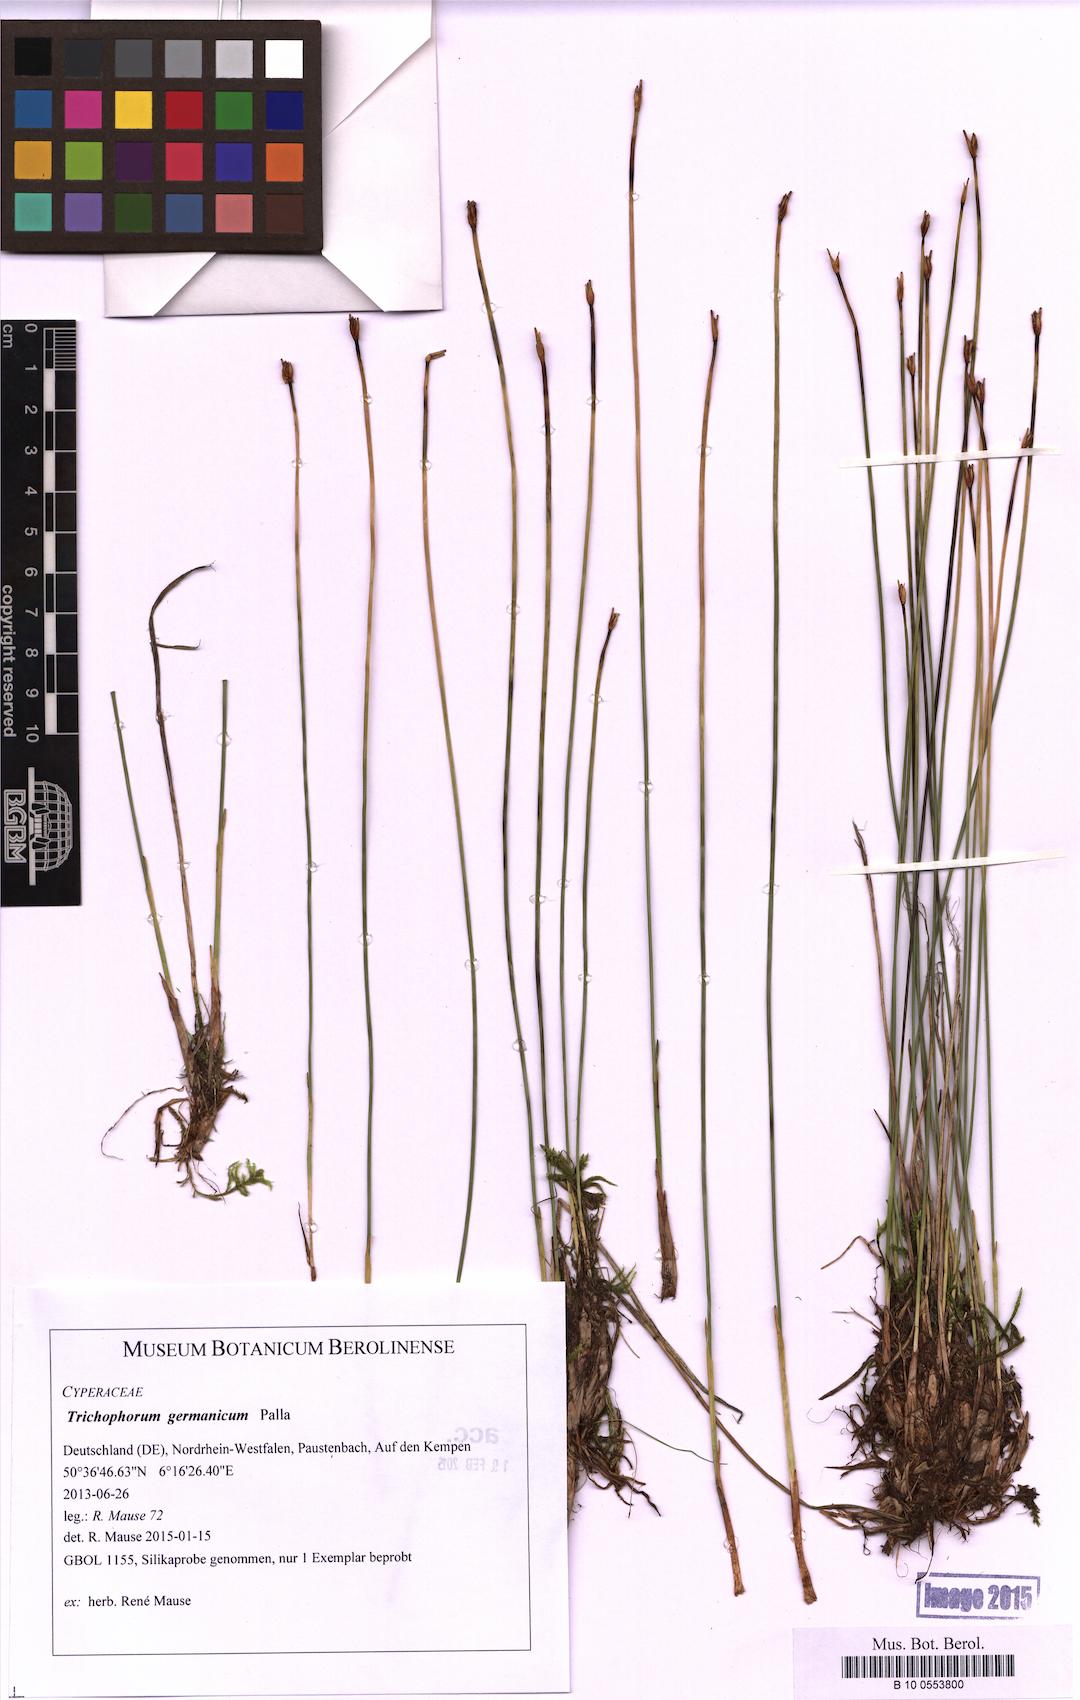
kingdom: Plantae
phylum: Tracheophyta
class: Liliopsida
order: Poales
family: Cyperaceae
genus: Trichophorum
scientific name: Trichophorum cespitosum
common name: Cespitose bulrush
